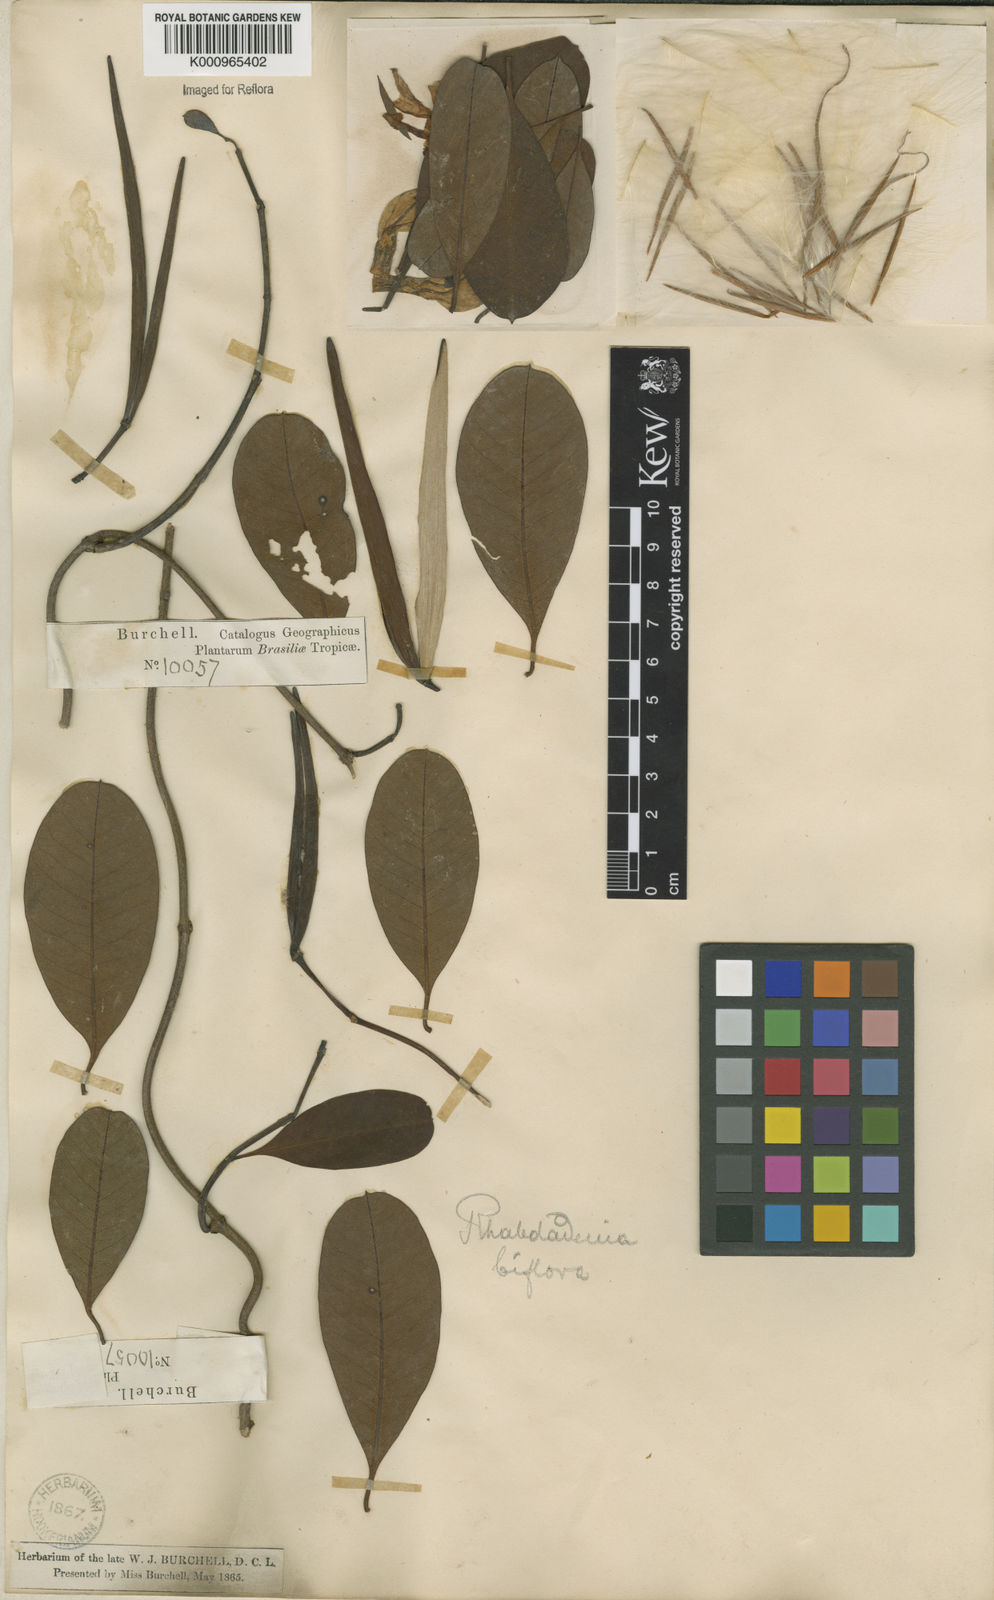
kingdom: Plantae
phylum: Tracheophyta
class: Magnoliopsida
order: Gentianales
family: Apocynaceae
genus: Rhabdadenia
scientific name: Rhabdadenia
